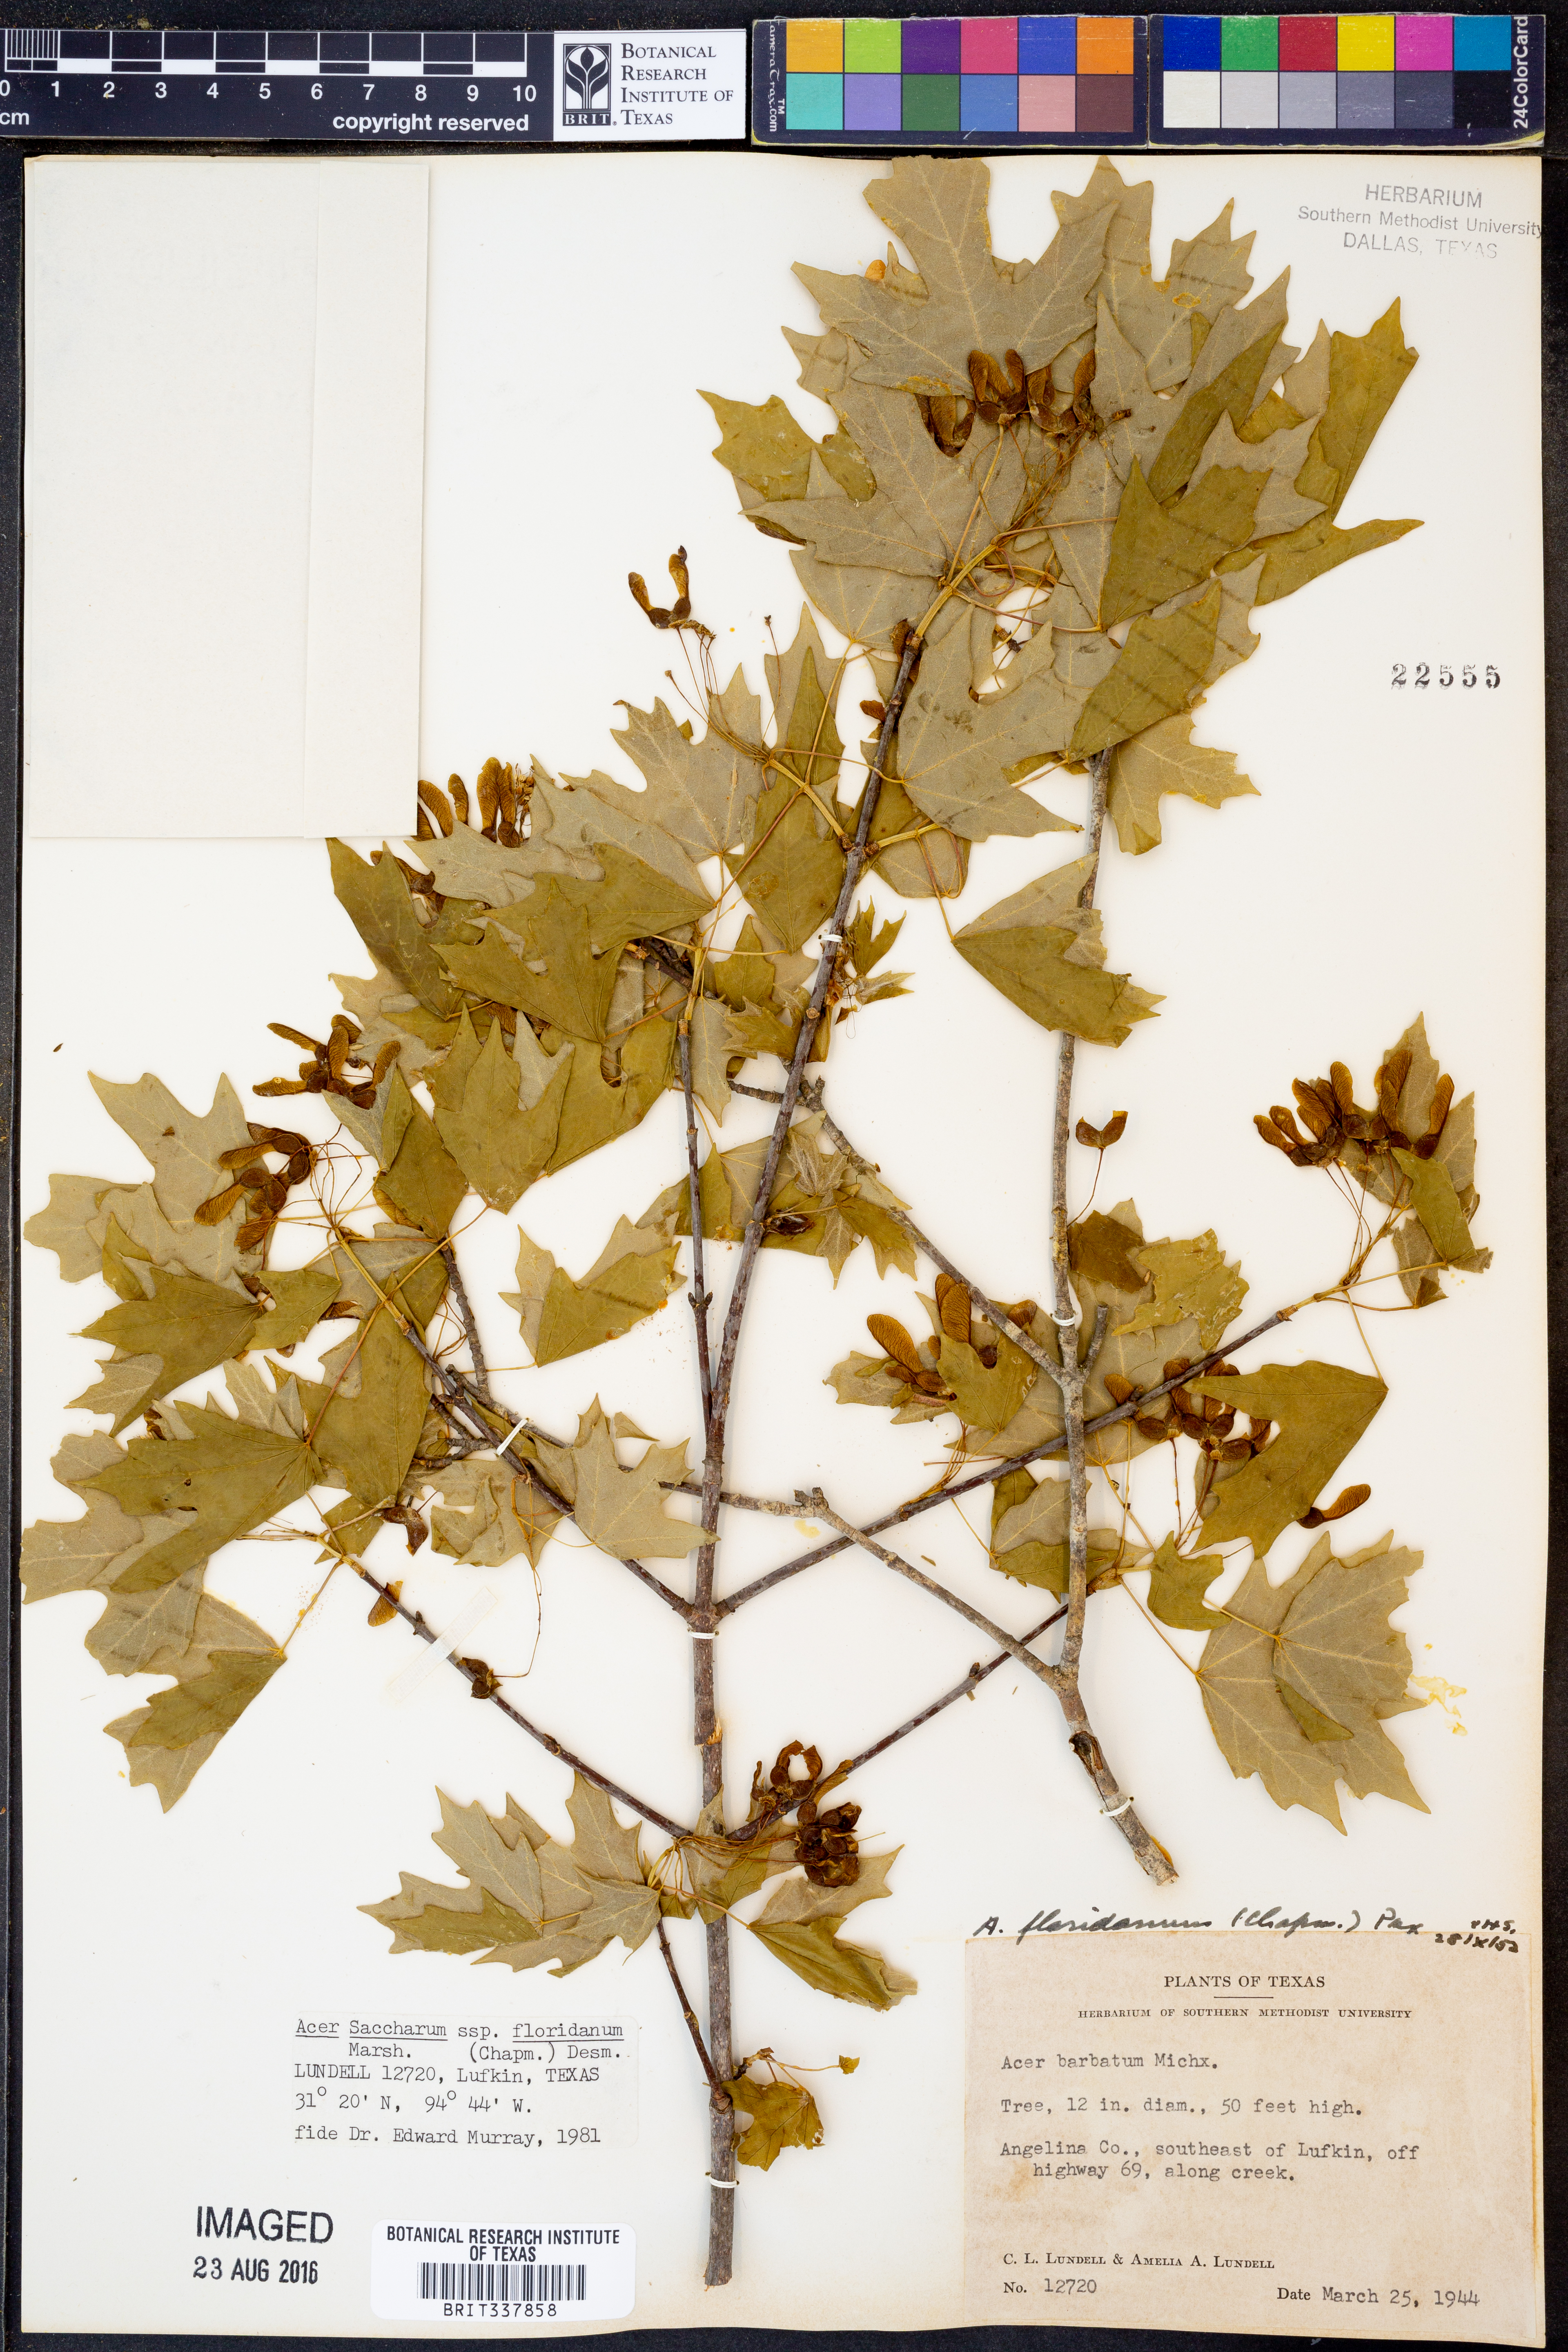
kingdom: Plantae
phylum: Tracheophyta
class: Magnoliopsida
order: Sapindales
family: Sapindaceae
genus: Acer
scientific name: Acer barbatum
